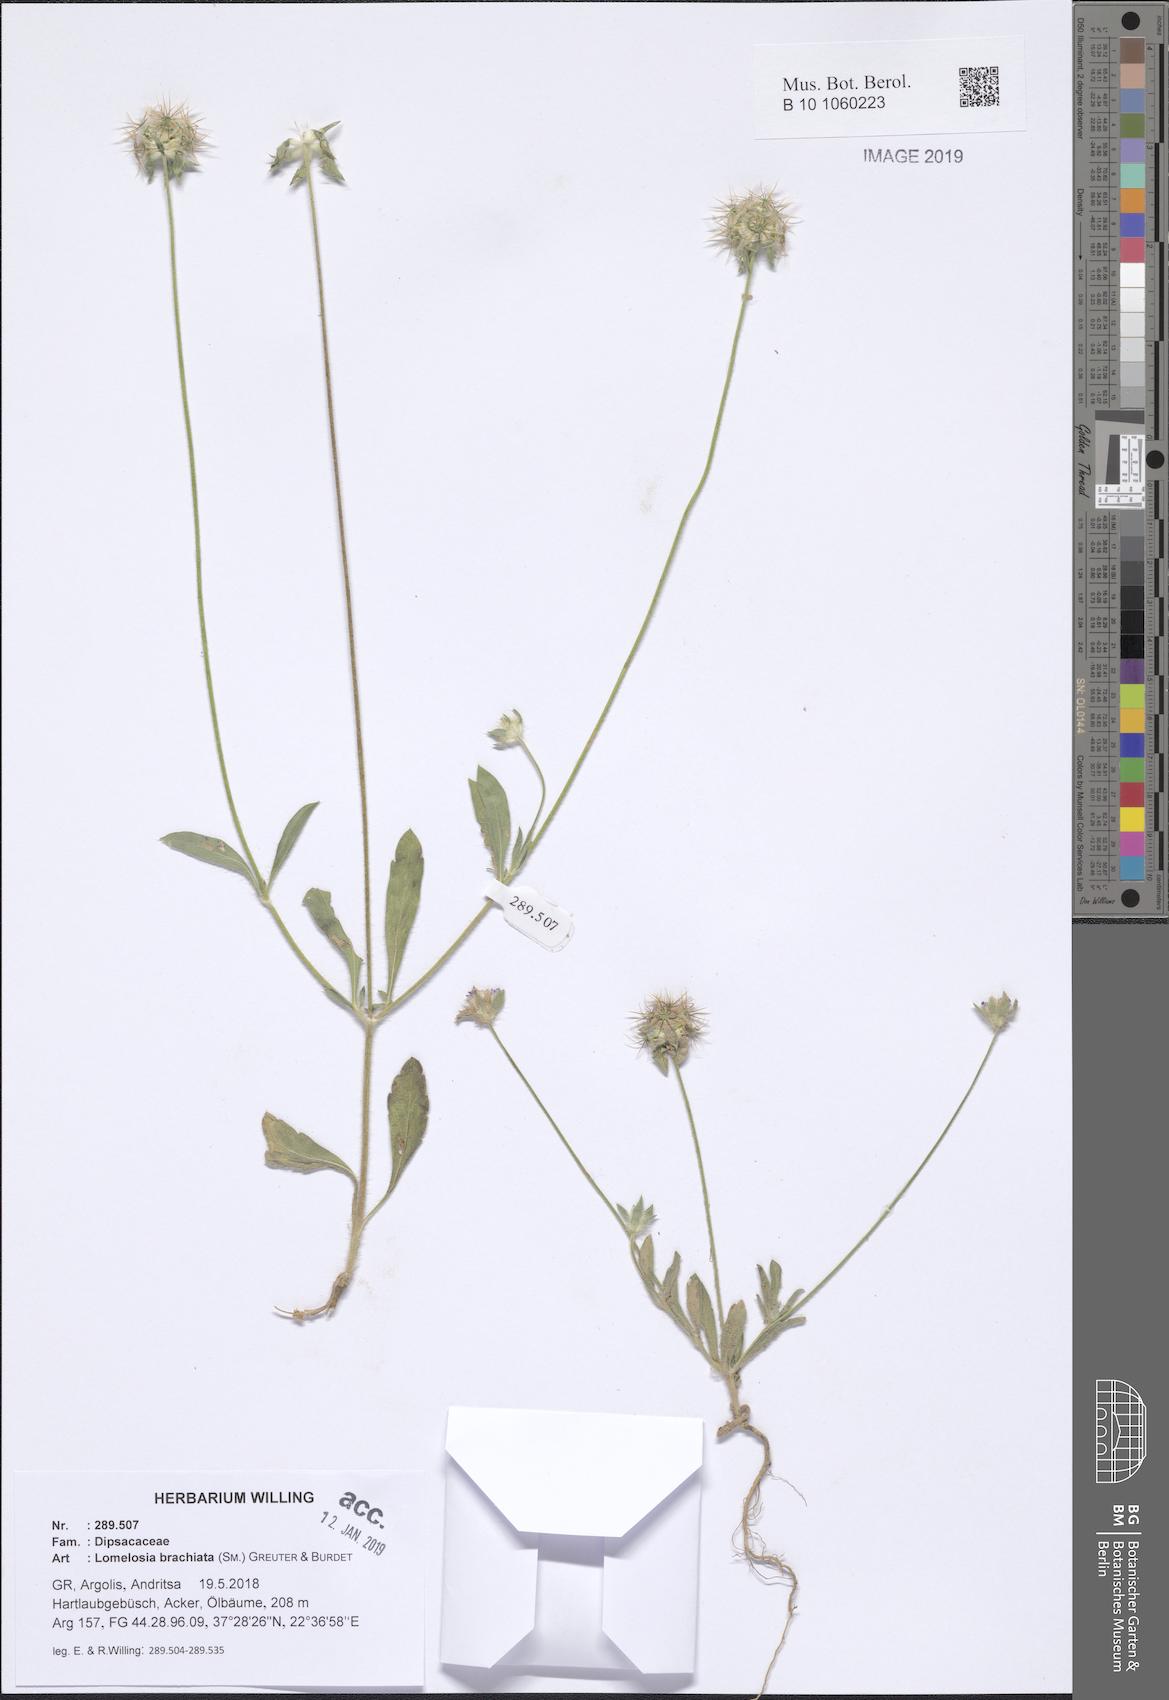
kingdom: Plantae
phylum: Tracheophyta
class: Magnoliopsida
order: Dipsacales
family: Caprifoliaceae
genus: Lomelosia
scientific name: Lomelosia brachiata
